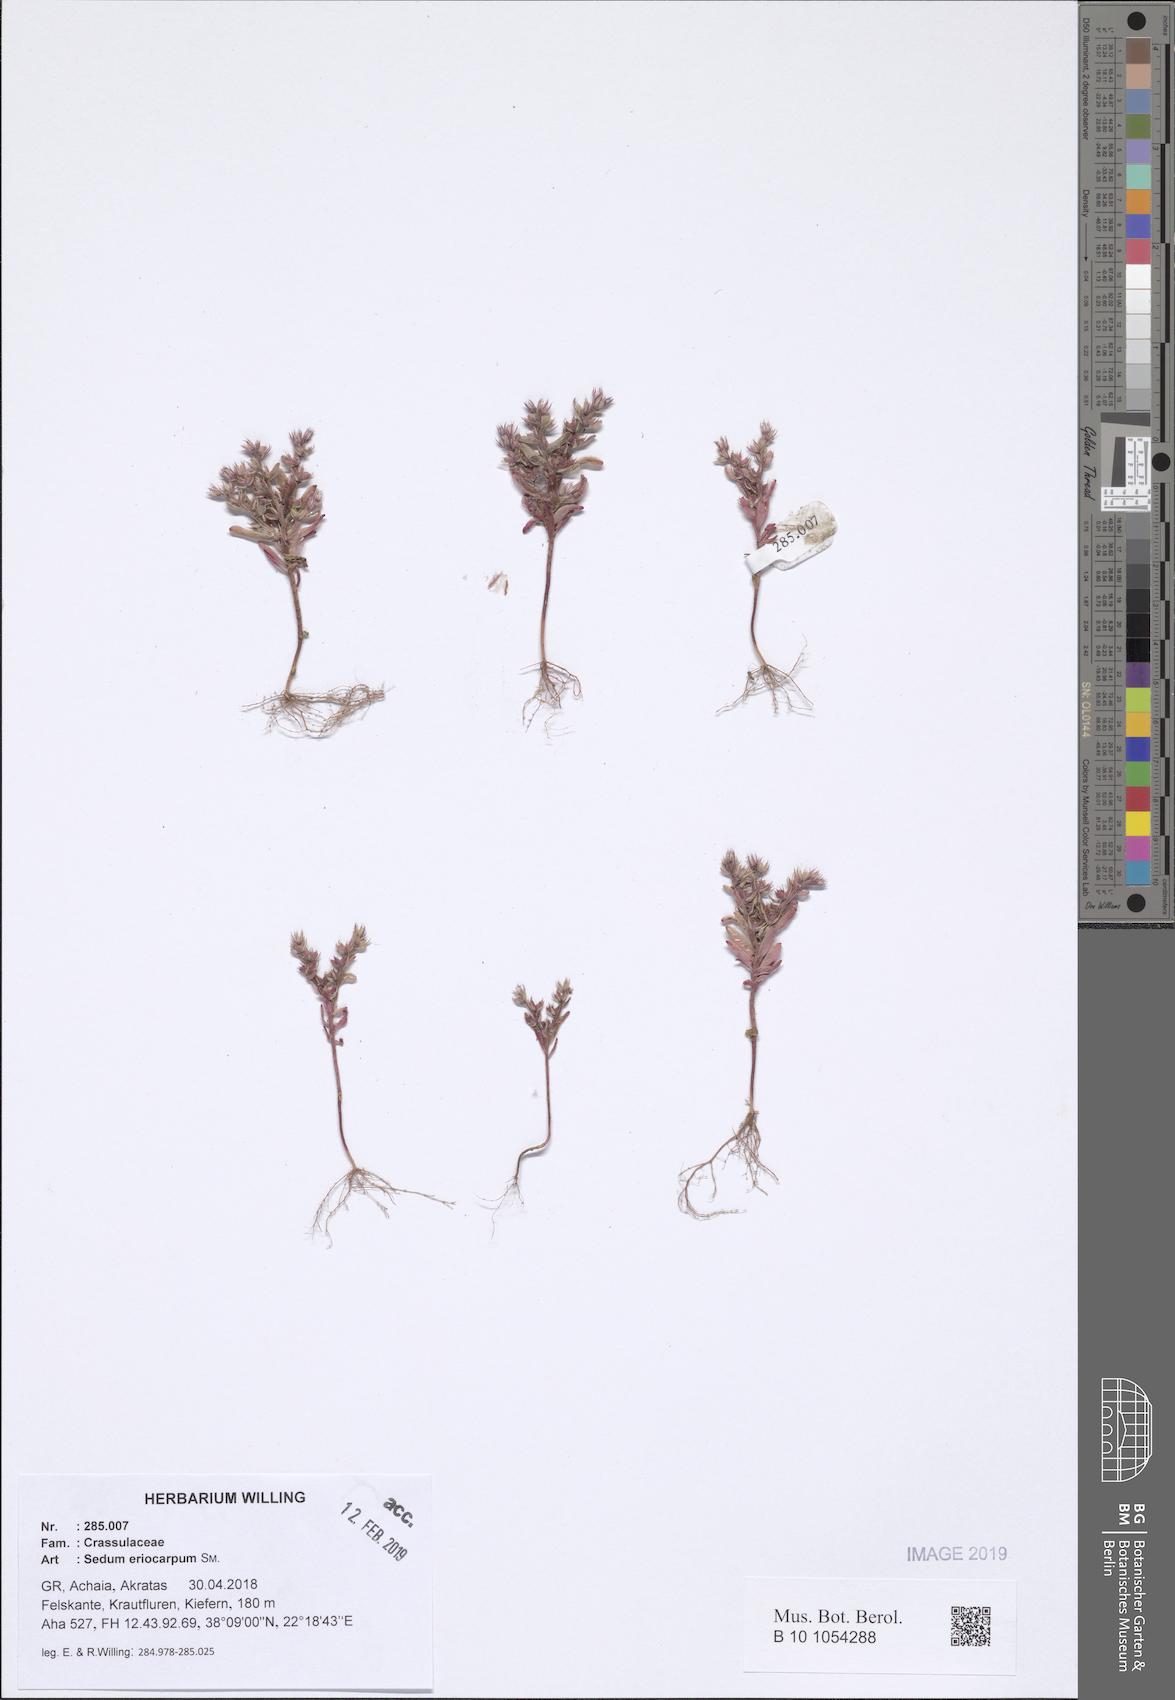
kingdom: Plantae
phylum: Tracheophyta
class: Magnoliopsida
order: Saxifragales
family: Crassulaceae
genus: Sedum
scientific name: Sedum eriocarpum
